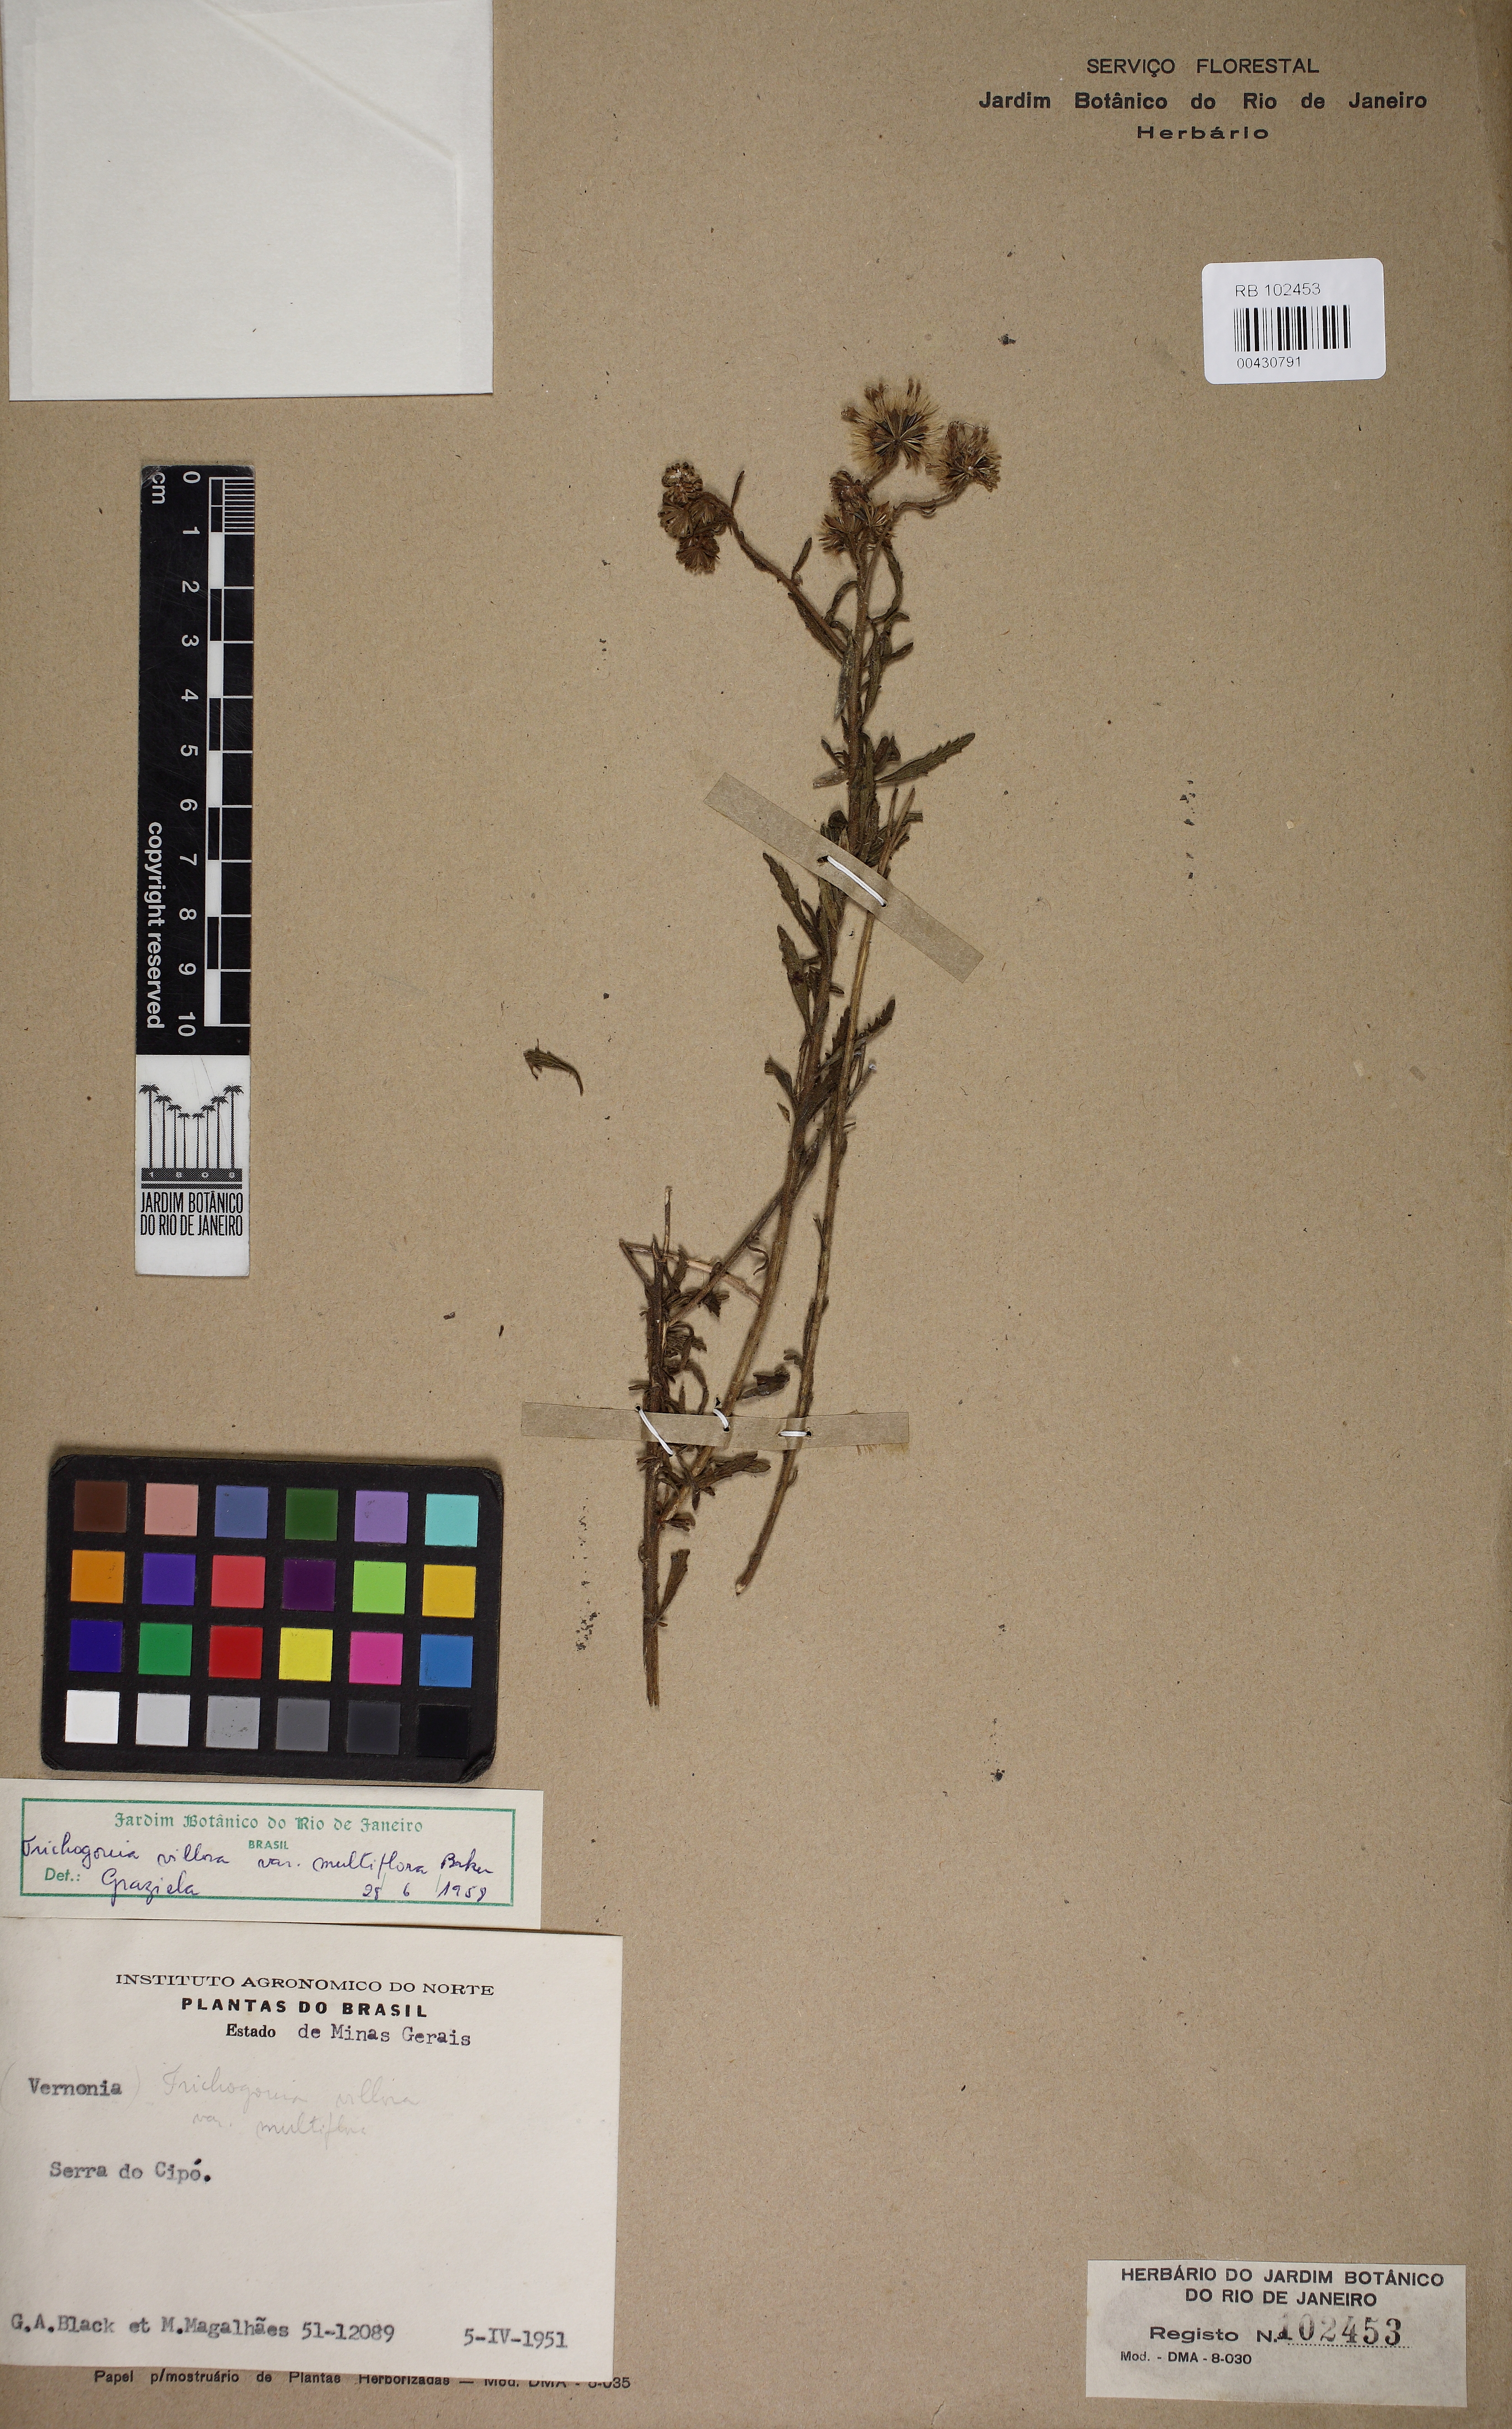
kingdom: Plantae
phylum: Tracheophyta
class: Magnoliopsida
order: Asterales
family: Asteraceae
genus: Trichogonia
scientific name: Trichogonia villosa
